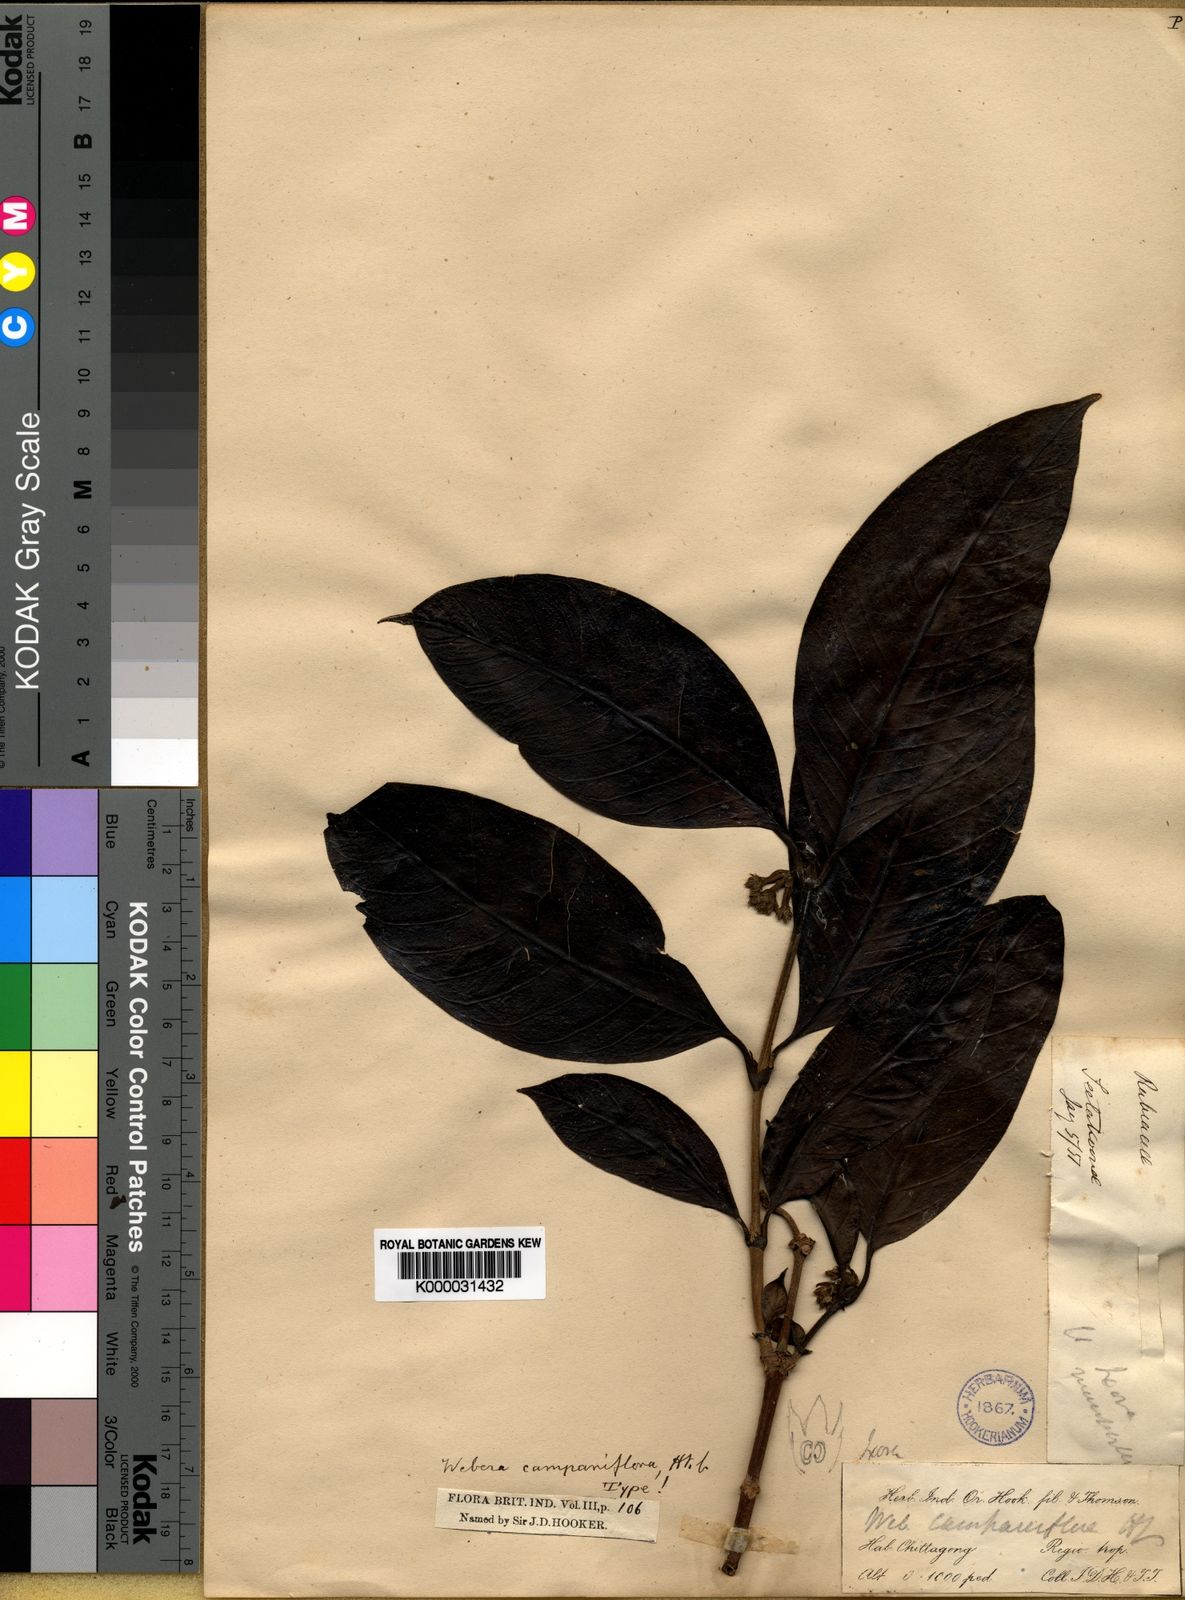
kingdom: Plantae
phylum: Tracheophyta
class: Magnoliopsida
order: Gentianales
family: Rubiaceae
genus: Tarenna
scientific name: Tarenna helferi
